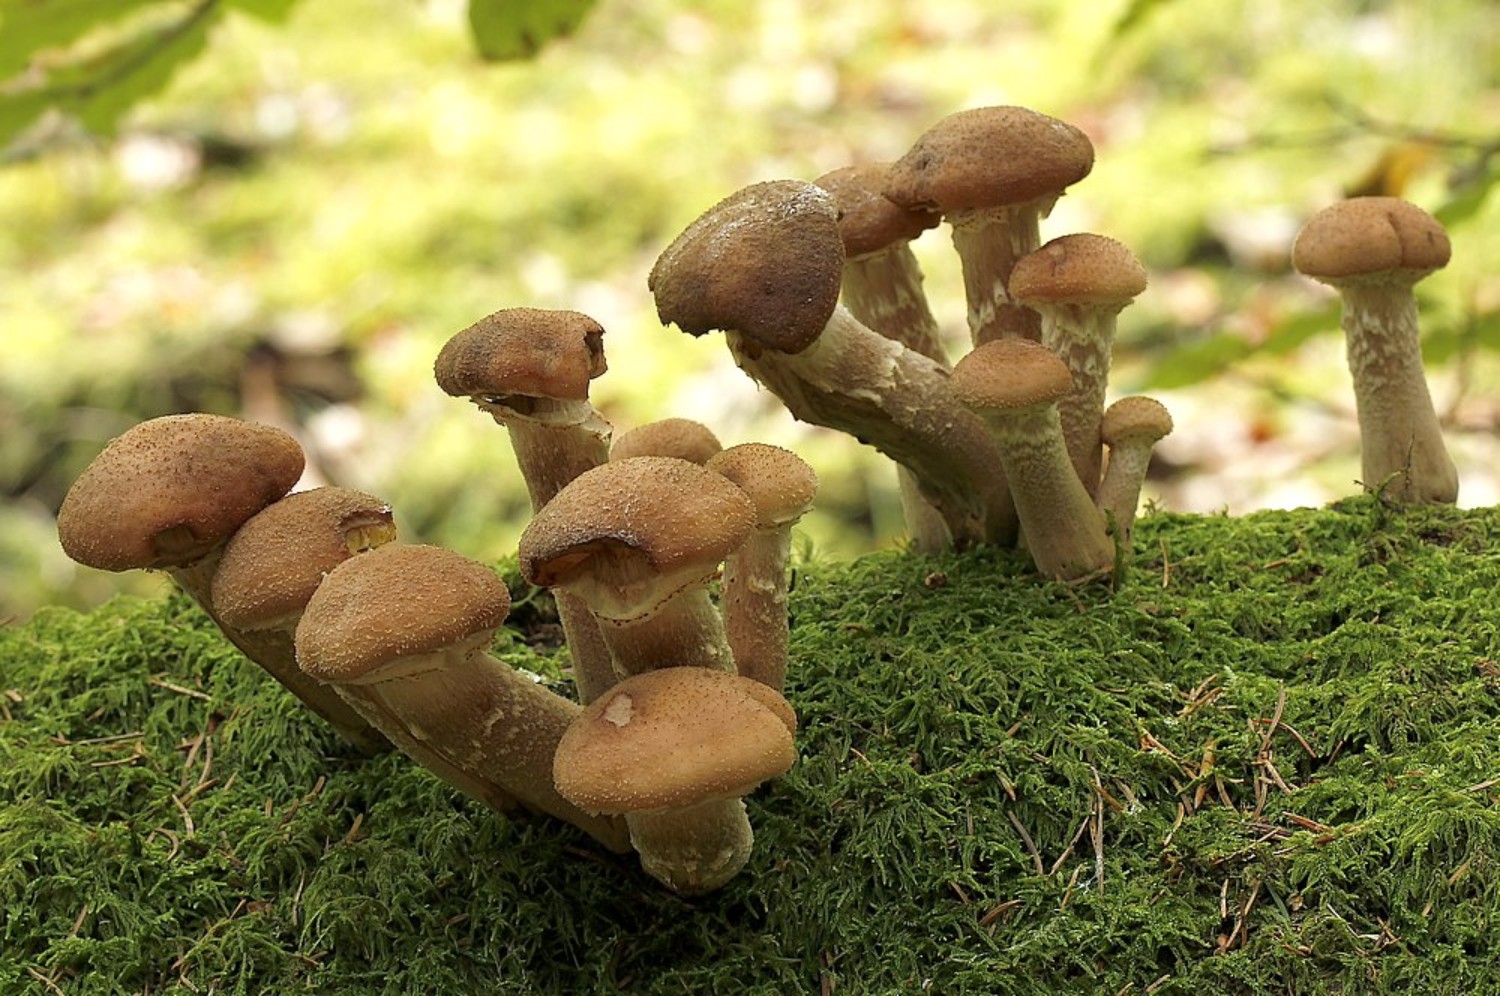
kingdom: Fungi
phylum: Basidiomycota
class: Agaricomycetes
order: Agaricales
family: Physalacriaceae
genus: Armillaria
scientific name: Armillaria
